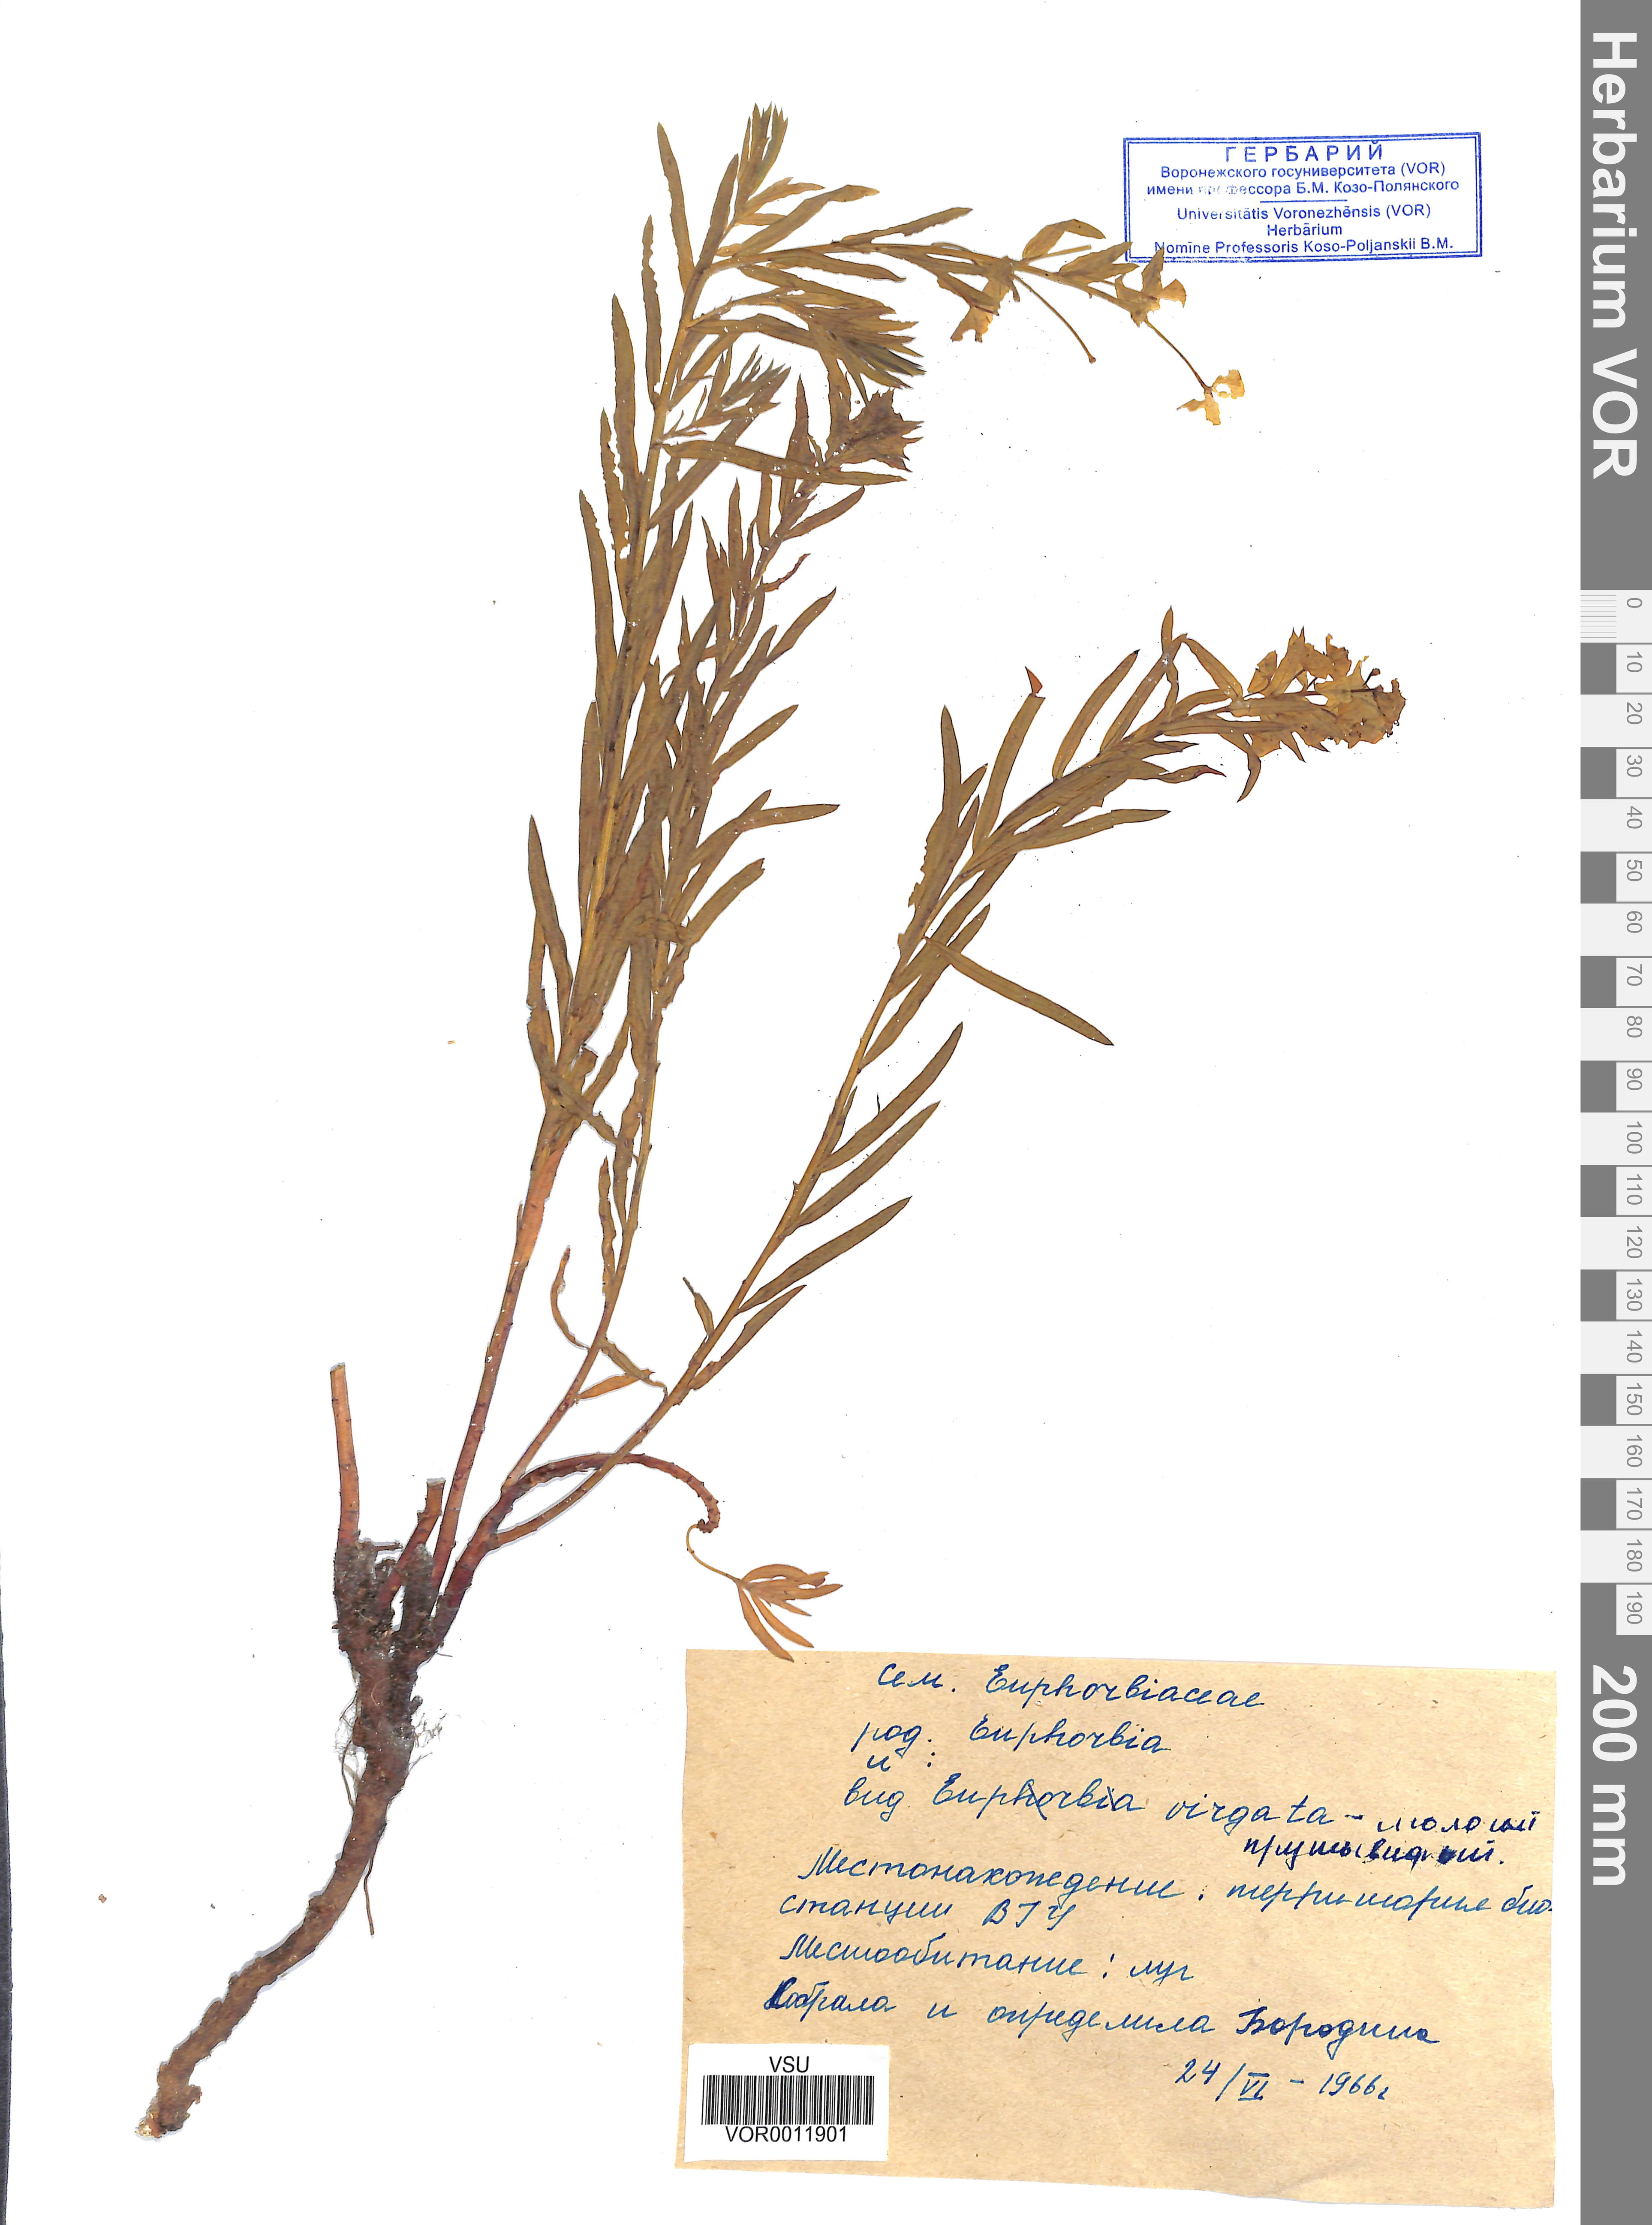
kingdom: Plantae
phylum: Tracheophyta
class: Magnoliopsida
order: Malpighiales
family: Euphorbiaceae
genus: Euphorbia
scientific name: Euphorbia virgata
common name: Leafy spurge
